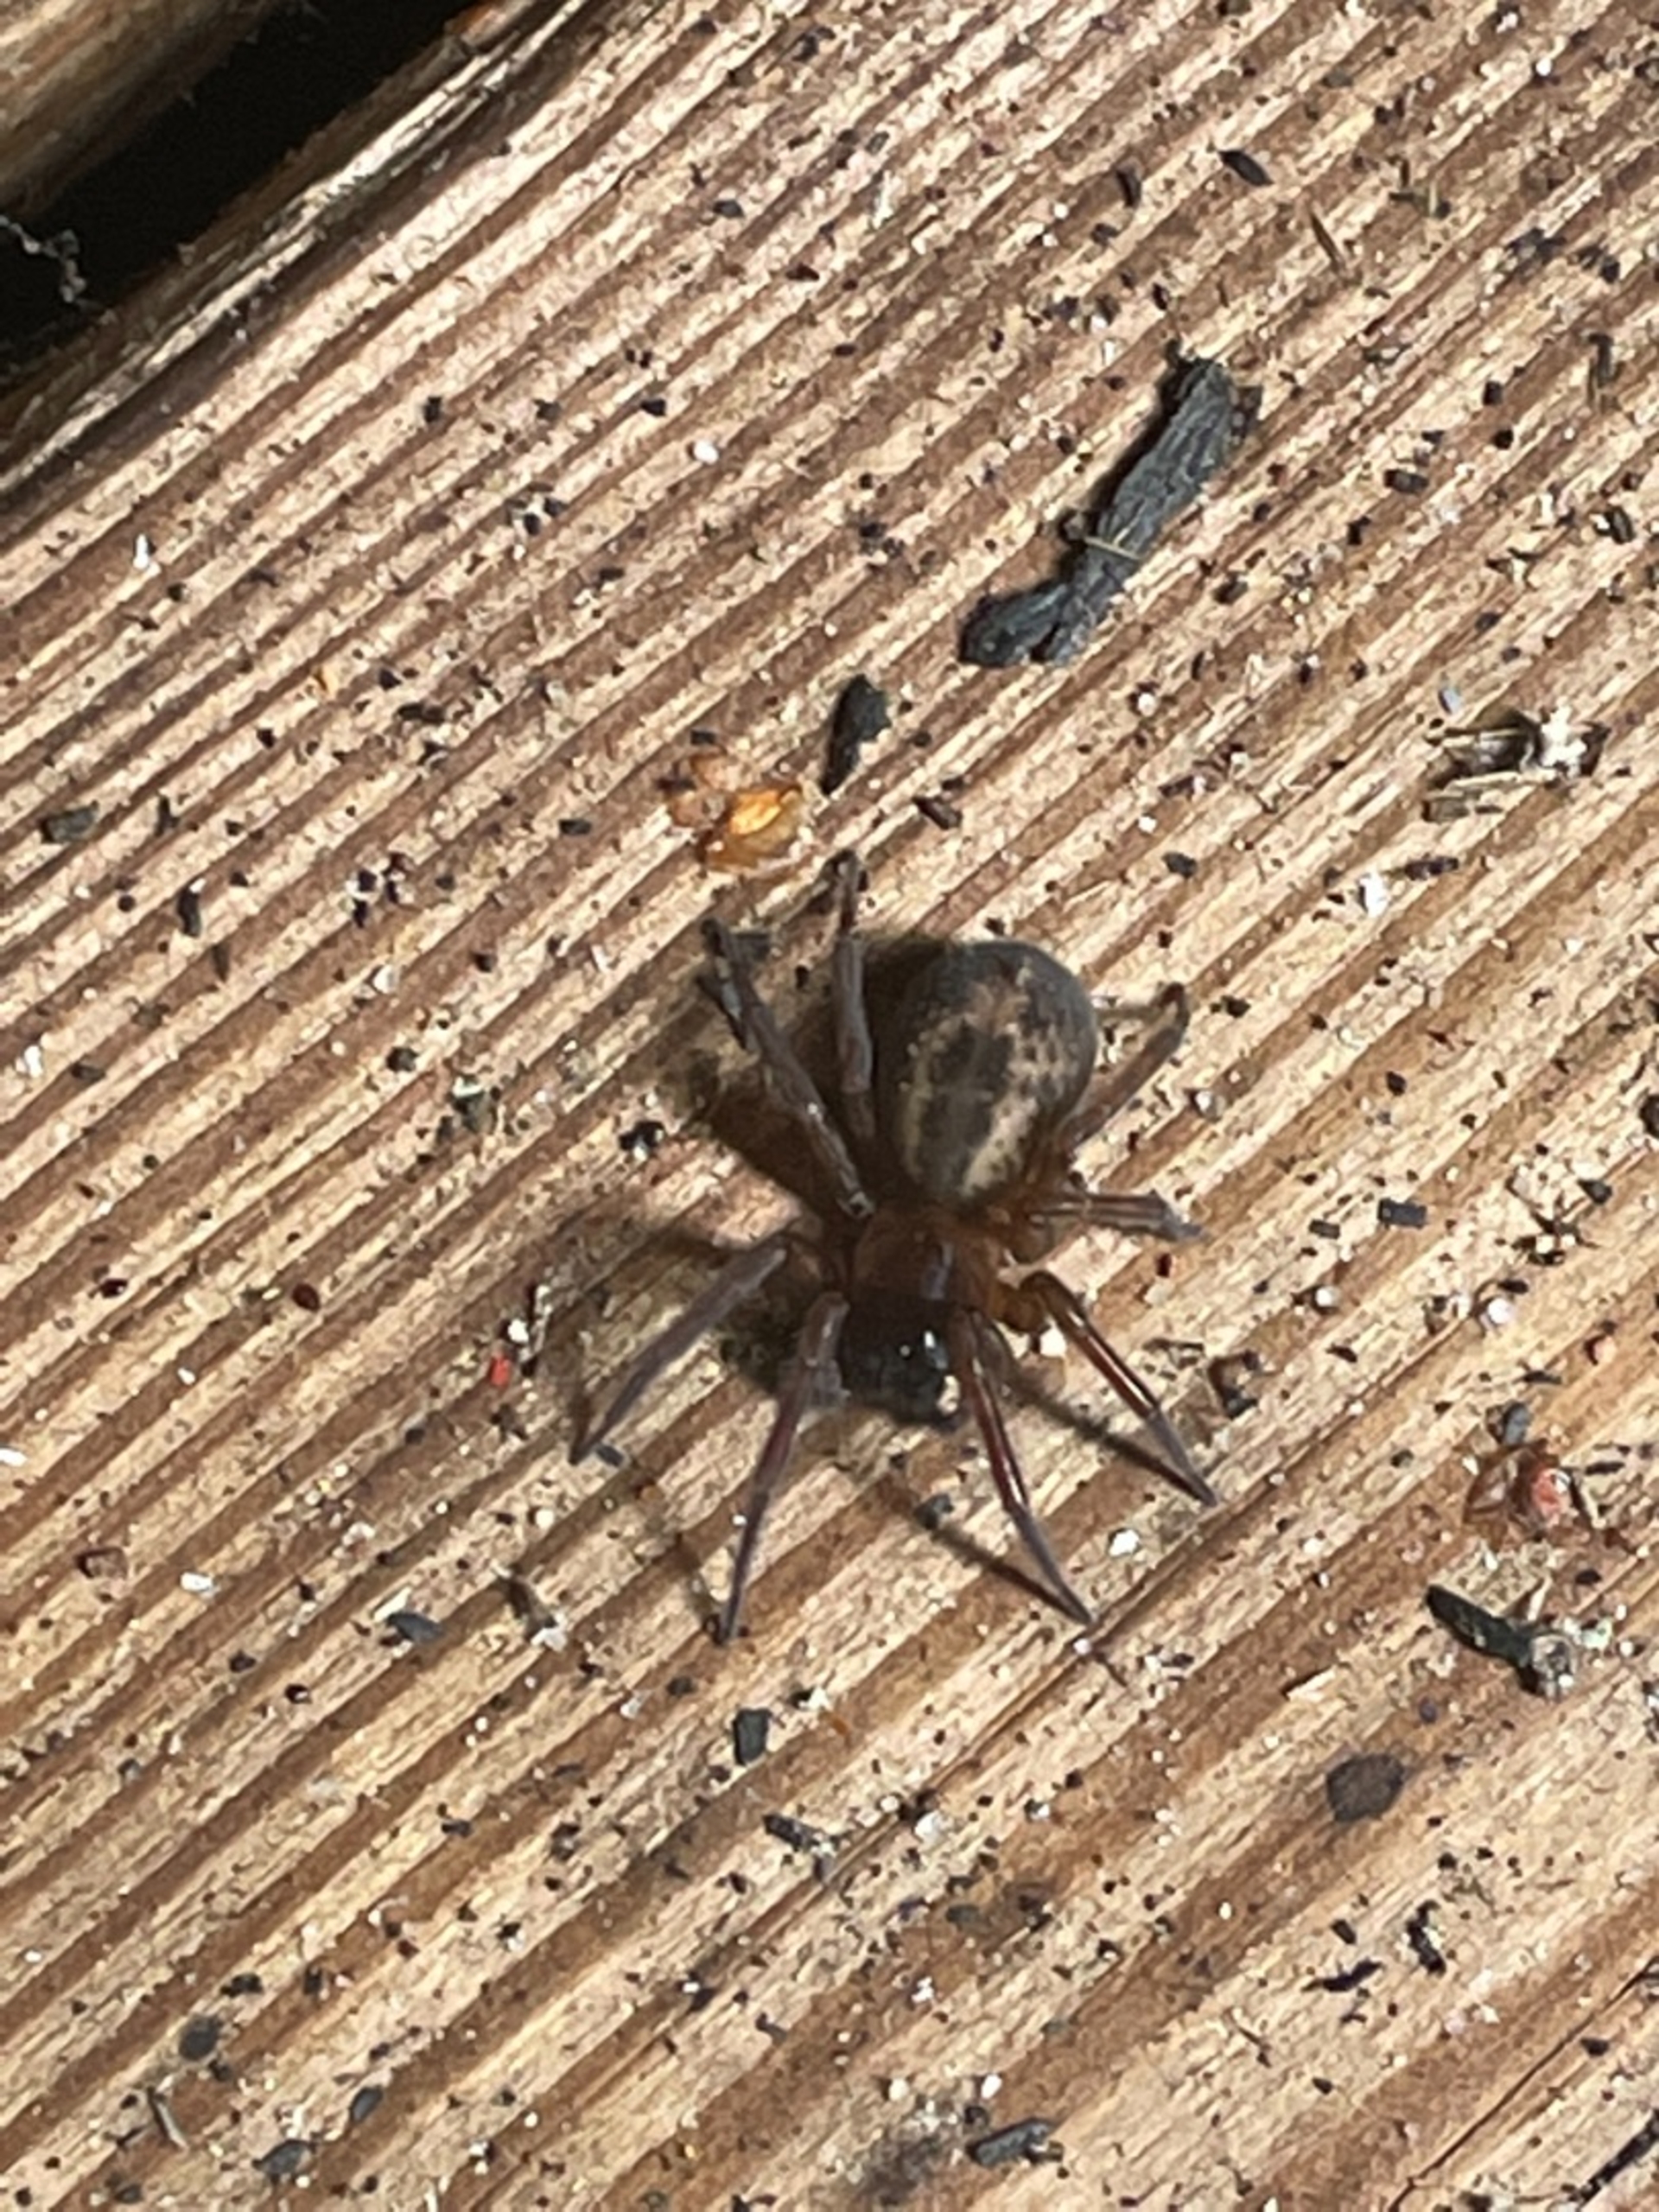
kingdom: Animalia
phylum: Arthropoda
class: Arachnida
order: Araneae
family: Amaurobiidae
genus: Amaurobius
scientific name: Amaurobius similis
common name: Huskartespinder
